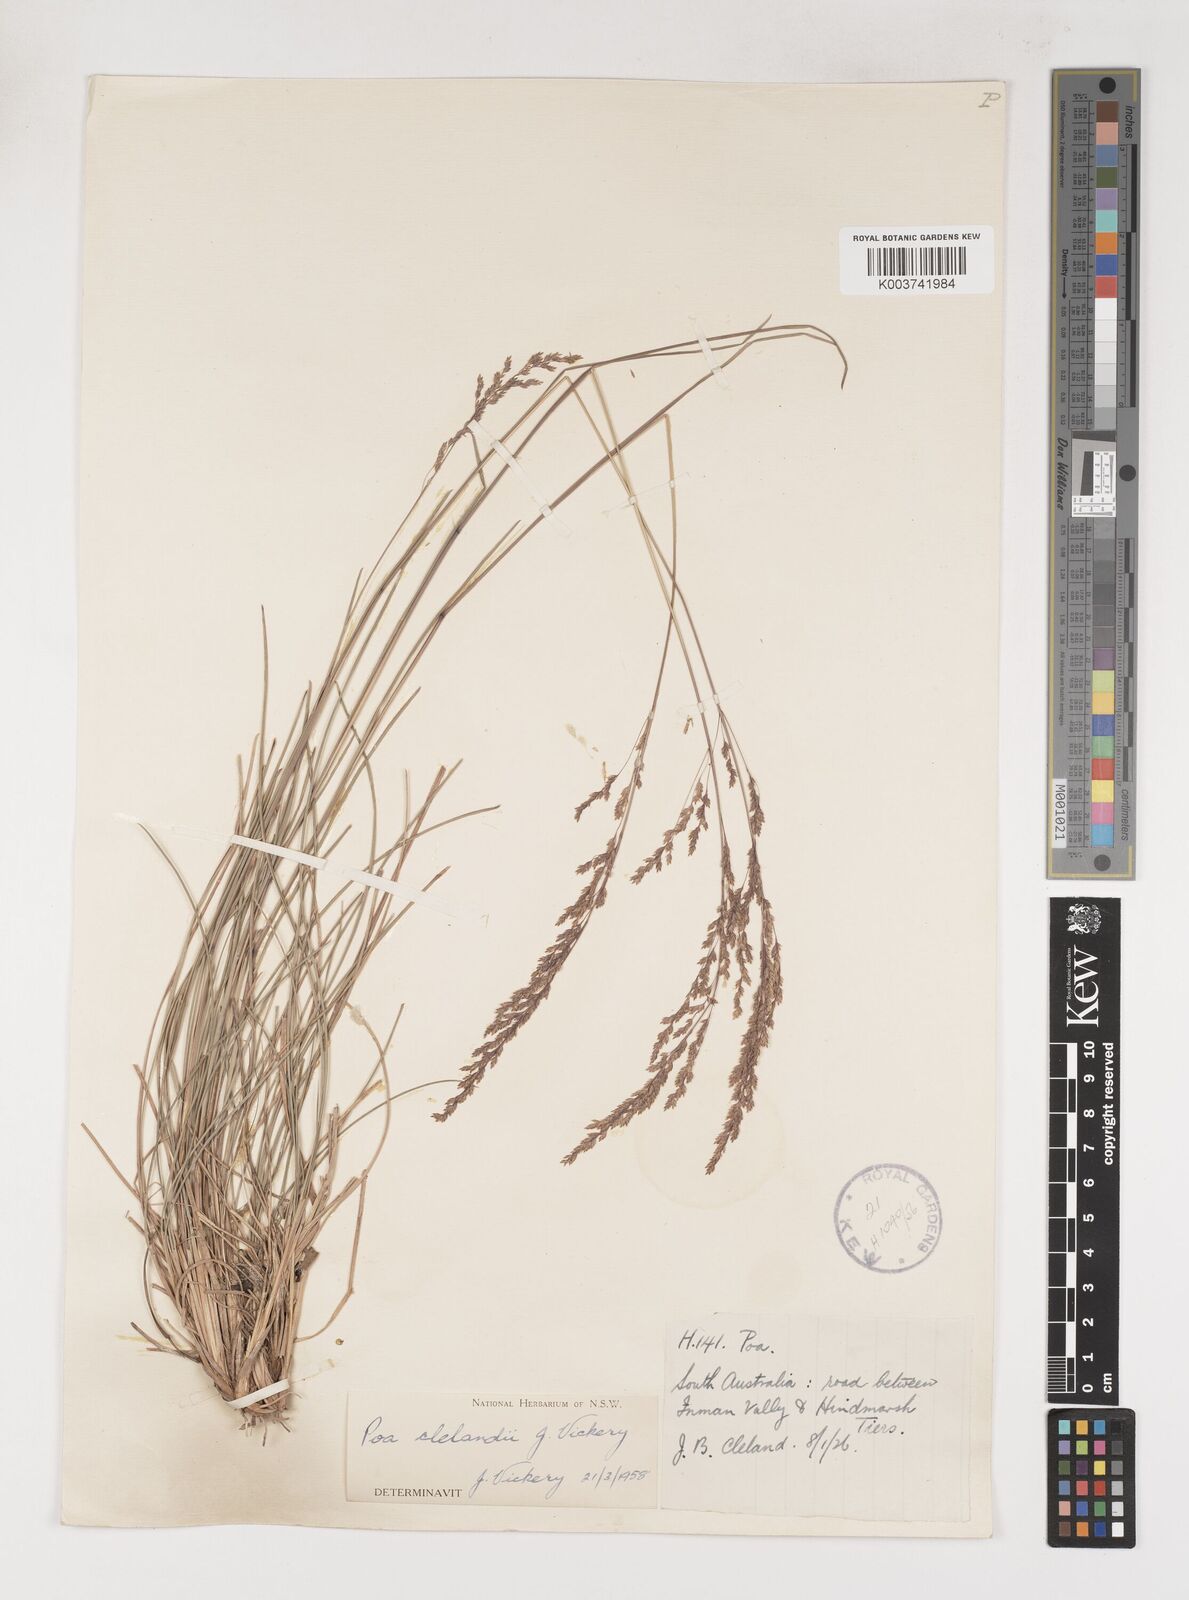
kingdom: Plantae
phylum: Tracheophyta
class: Liliopsida
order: Poales
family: Poaceae
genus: Poa
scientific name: Poa clelandii
